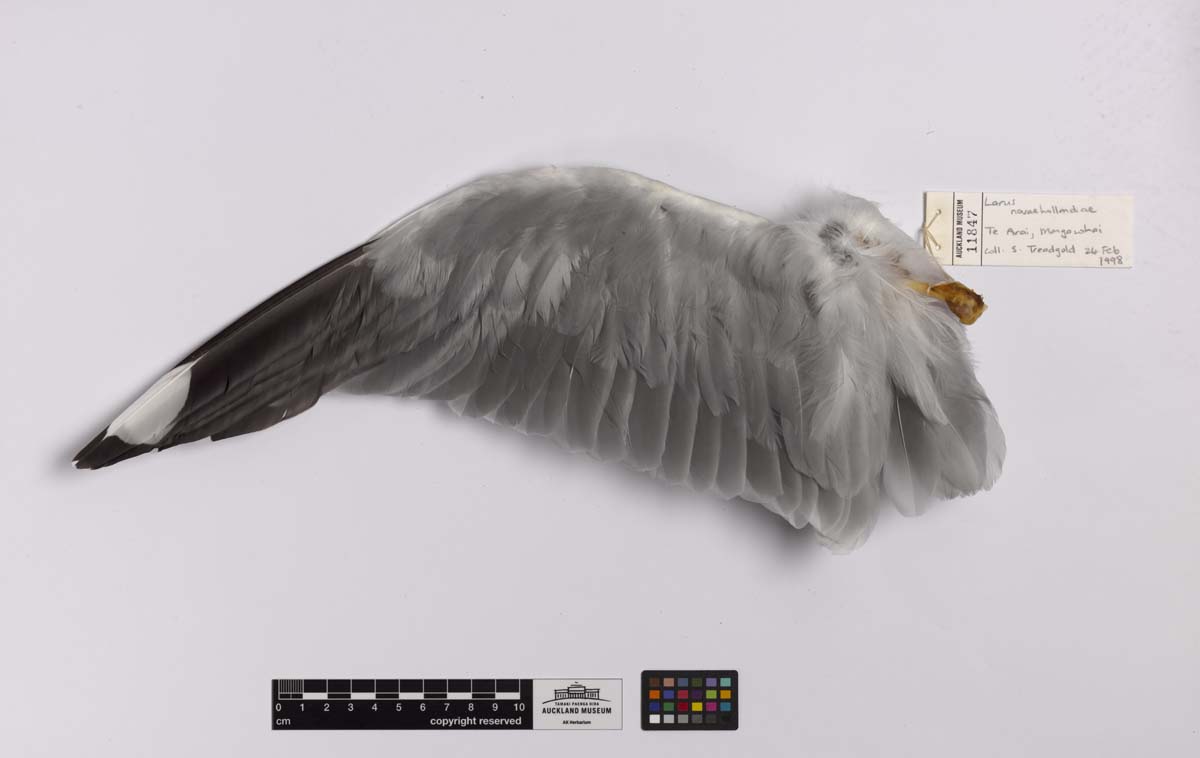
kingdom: Animalia
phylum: Chordata
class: Aves
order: Charadriiformes
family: Laridae
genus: Chroicocephalus
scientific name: Chroicocephalus novaehollandiae
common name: Silver gull
